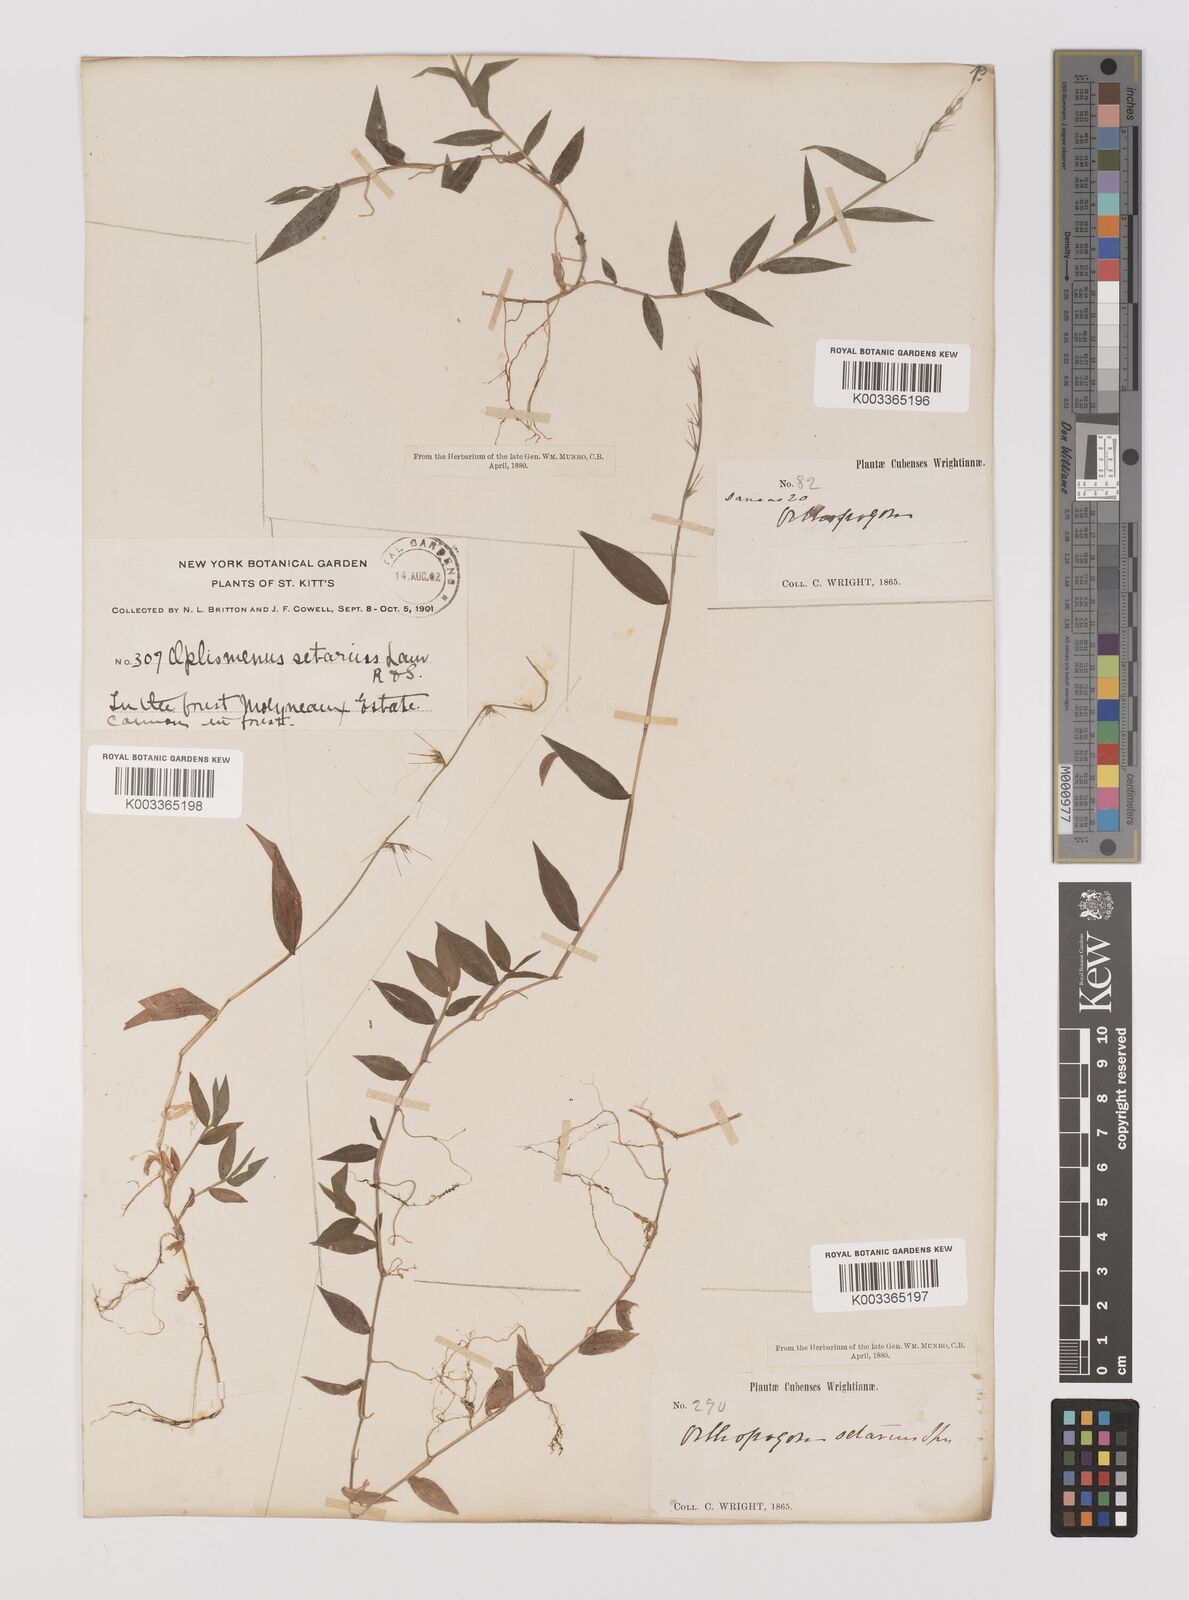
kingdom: Plantae
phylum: Tracheophyta
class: Liliopsida
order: Poales
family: Poaceae
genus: Oplismenus
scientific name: Oplismenus hirtellus
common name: Basketgrass
